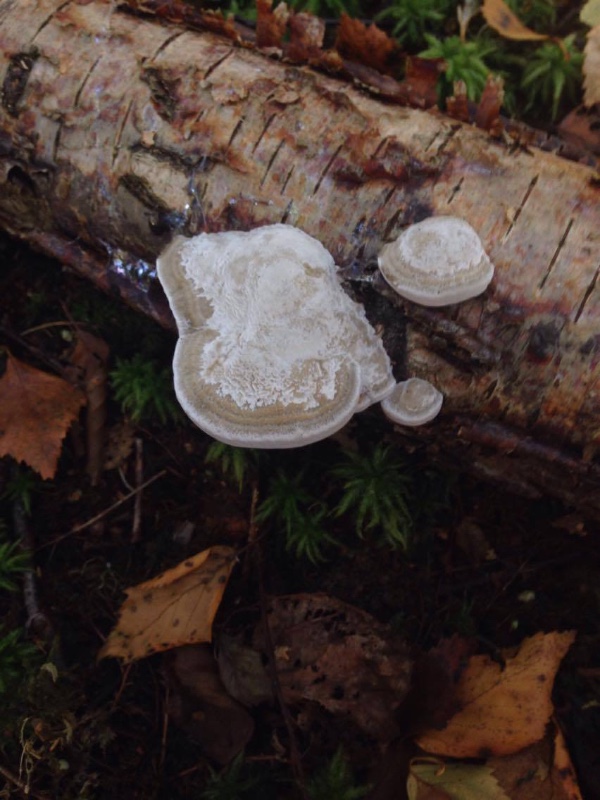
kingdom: Fungi
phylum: Basidiomycota
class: Agaricomycetes
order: Polyporales
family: Polyporaceae
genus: Daedaleopsis
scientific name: Daedaleopsis confragosa
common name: rødmende læderporesvamp
